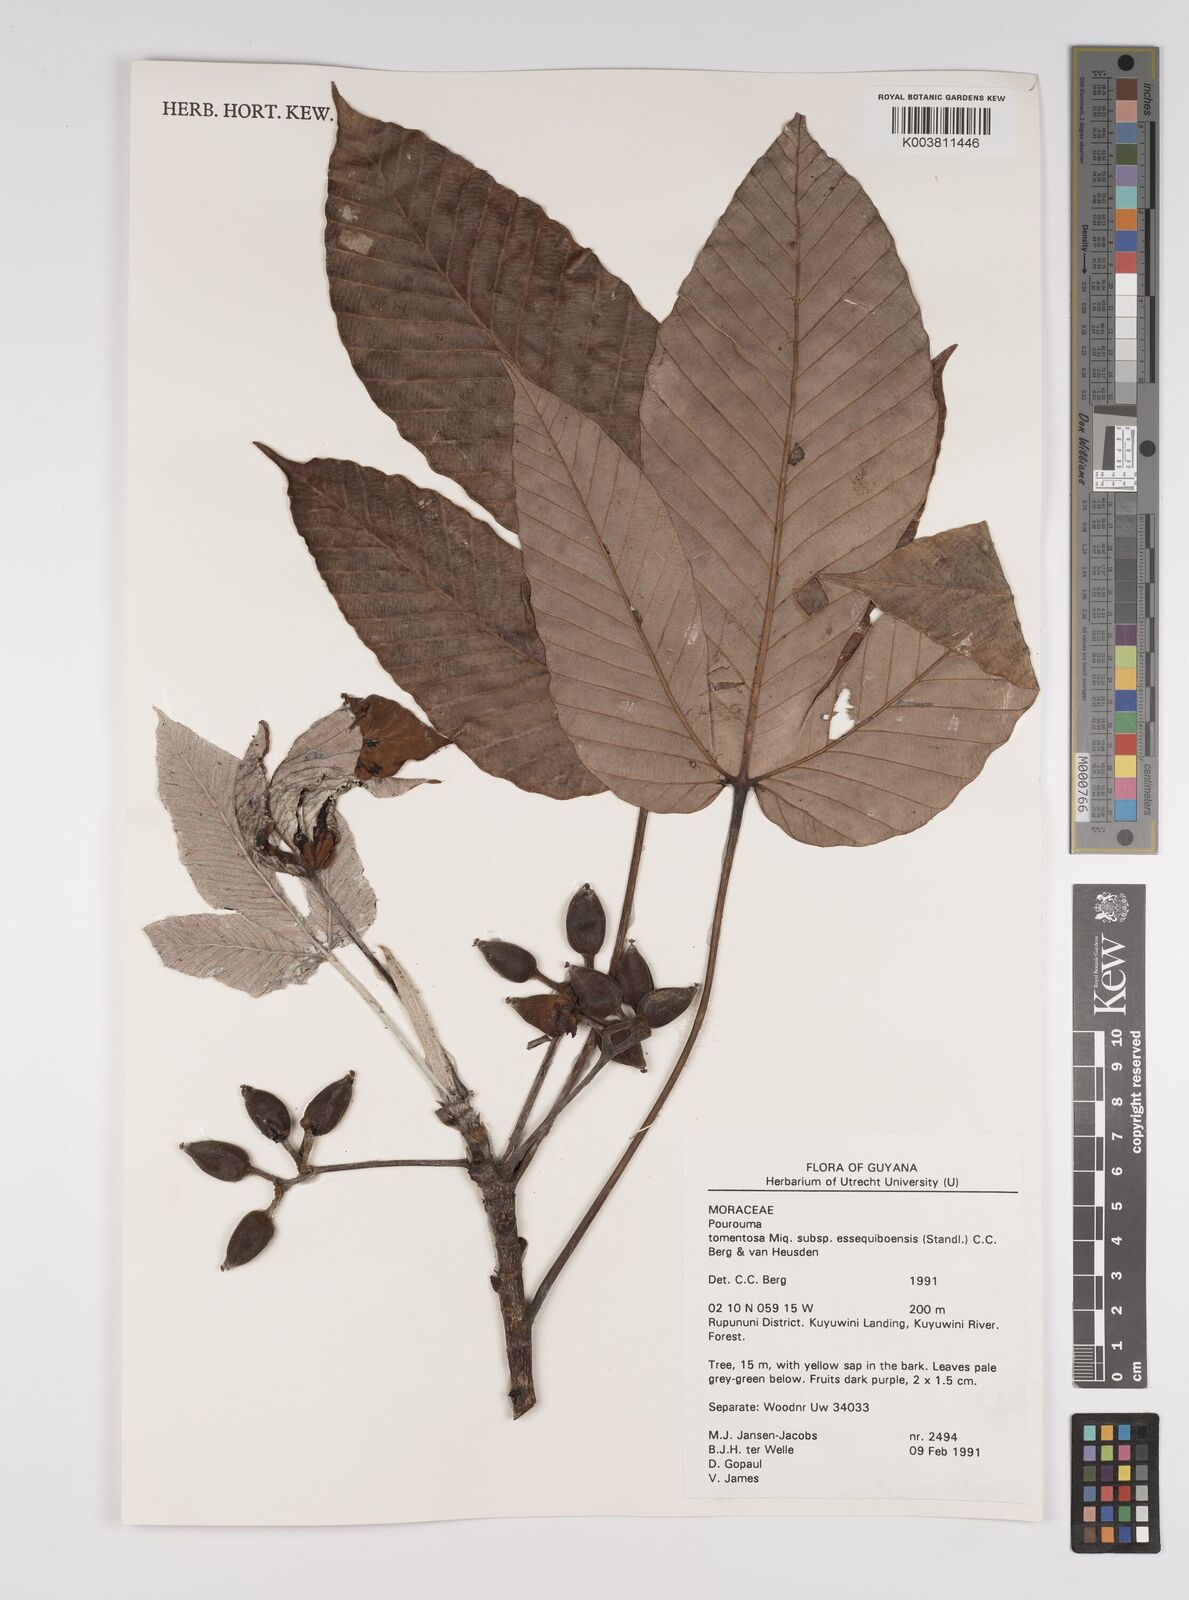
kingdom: Plantae
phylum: Tracheophyta
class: Magnoliopsida
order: Rosales
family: Urticaceae
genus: Pourouma
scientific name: Pourouma tomentosa
